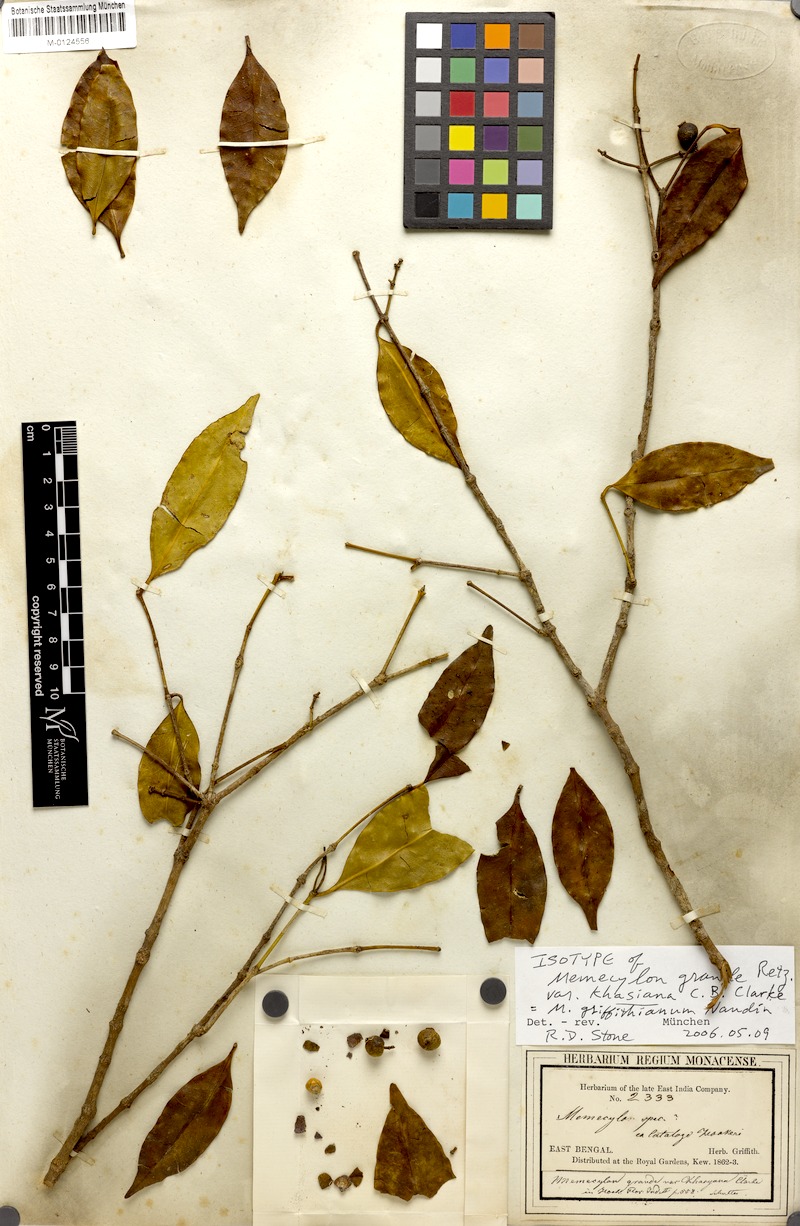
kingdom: Plantae
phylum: Tracheophyta
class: Magnoliopsida
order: Myrtales
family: Melastomataceae
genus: Memecylon
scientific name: Memecylon griffithianum
